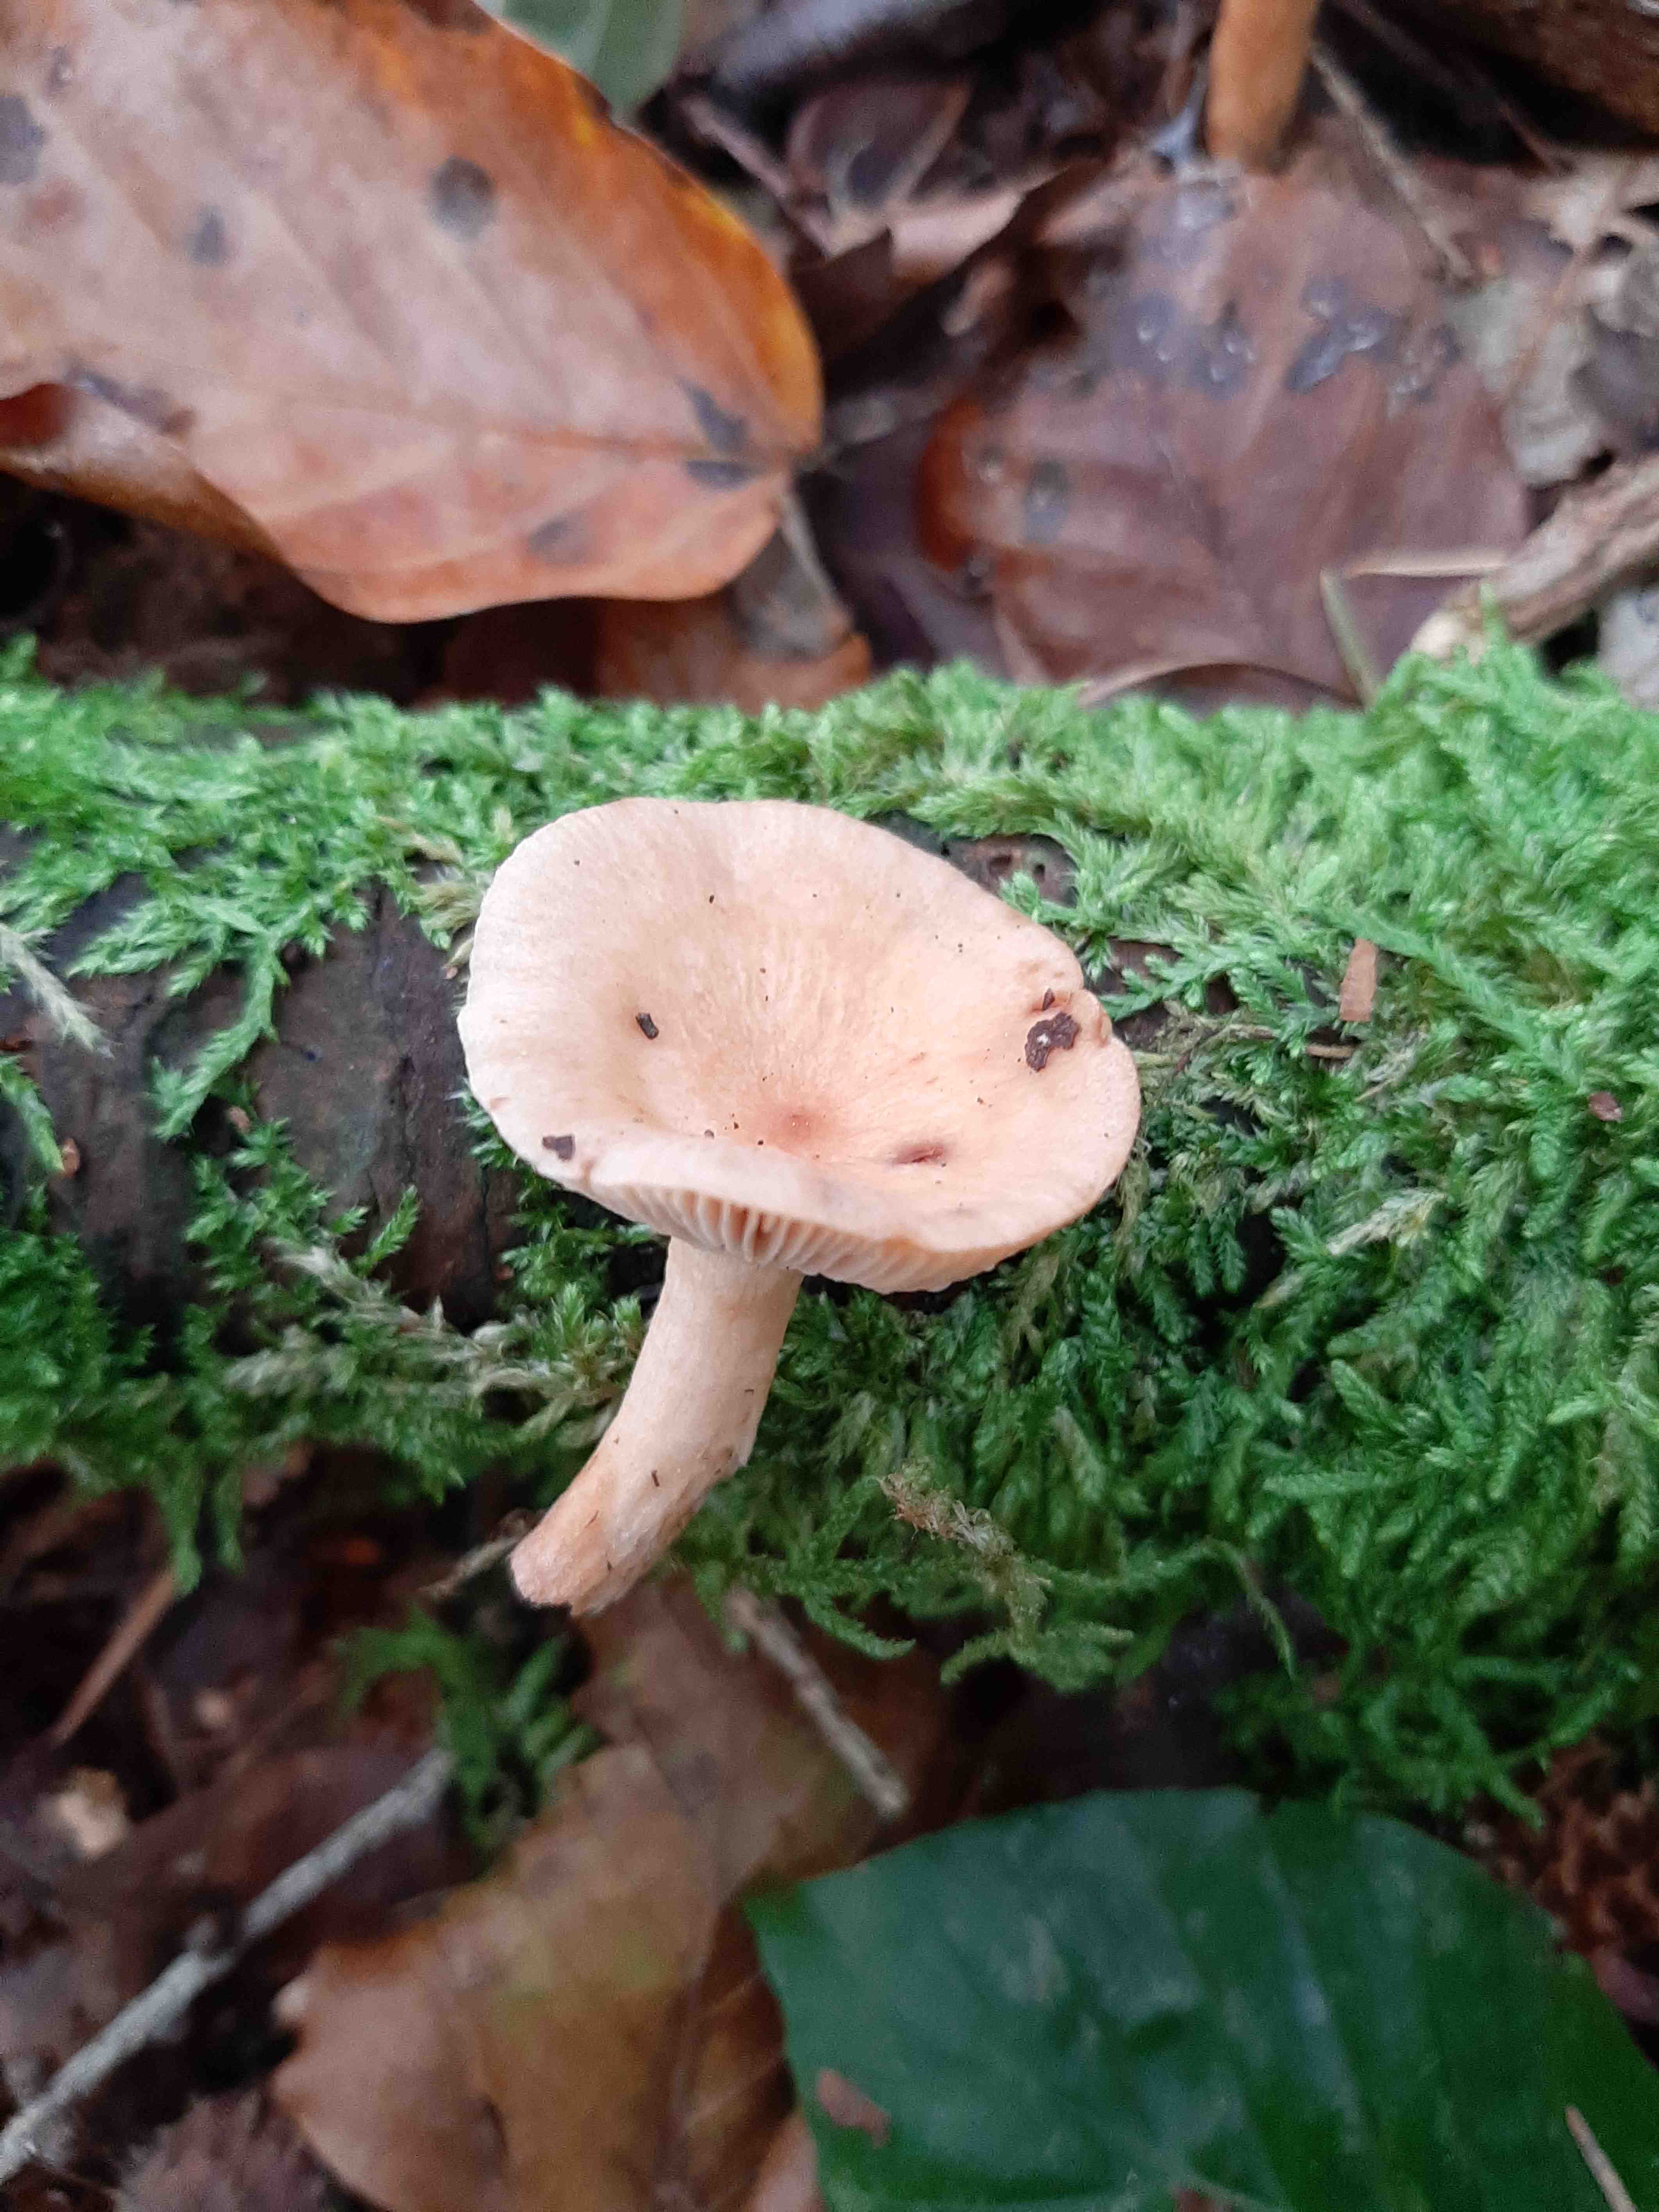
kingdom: Fungi
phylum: Basidiomycota
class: Agaricomycetes
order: Russulales
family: Russulaceae
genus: Lactarius
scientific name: Lactarius
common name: mælkehat
